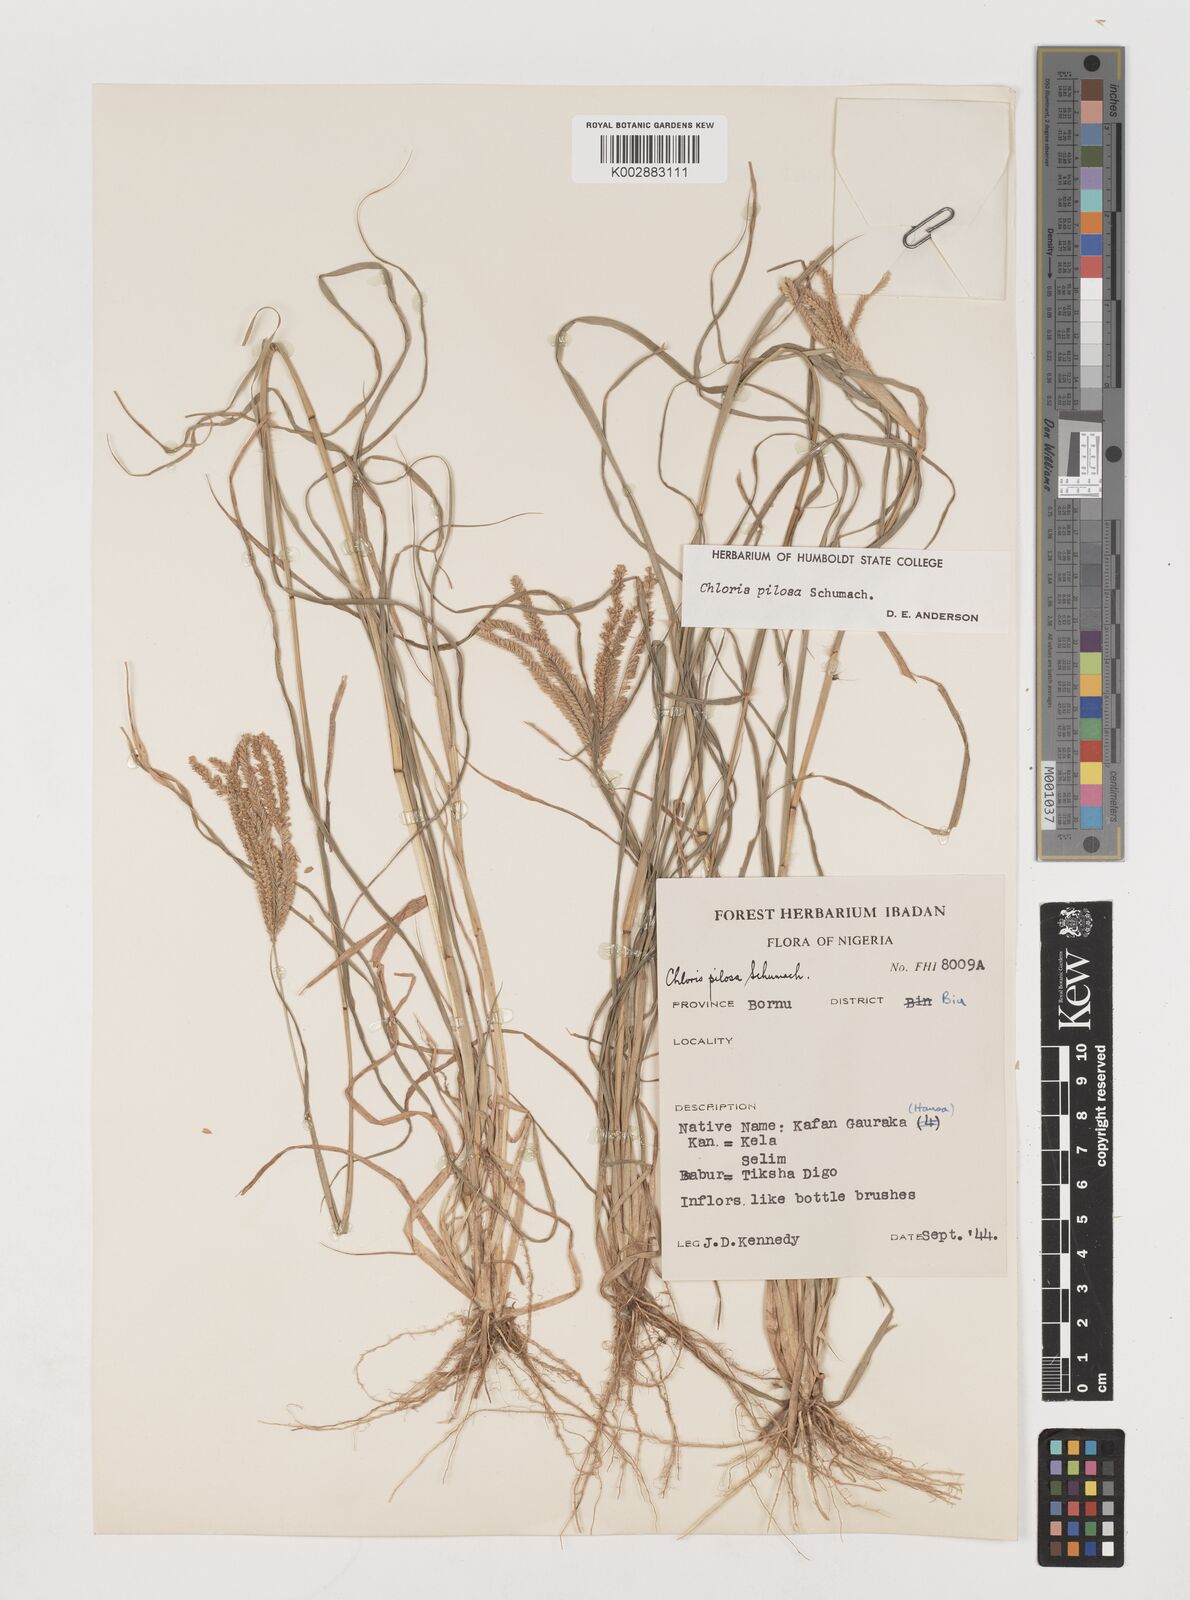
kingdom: Plantae
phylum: Tracheophyta
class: Liliopsida
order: Poales
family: Poaceae
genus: Chloris
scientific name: Chloris pilosa
